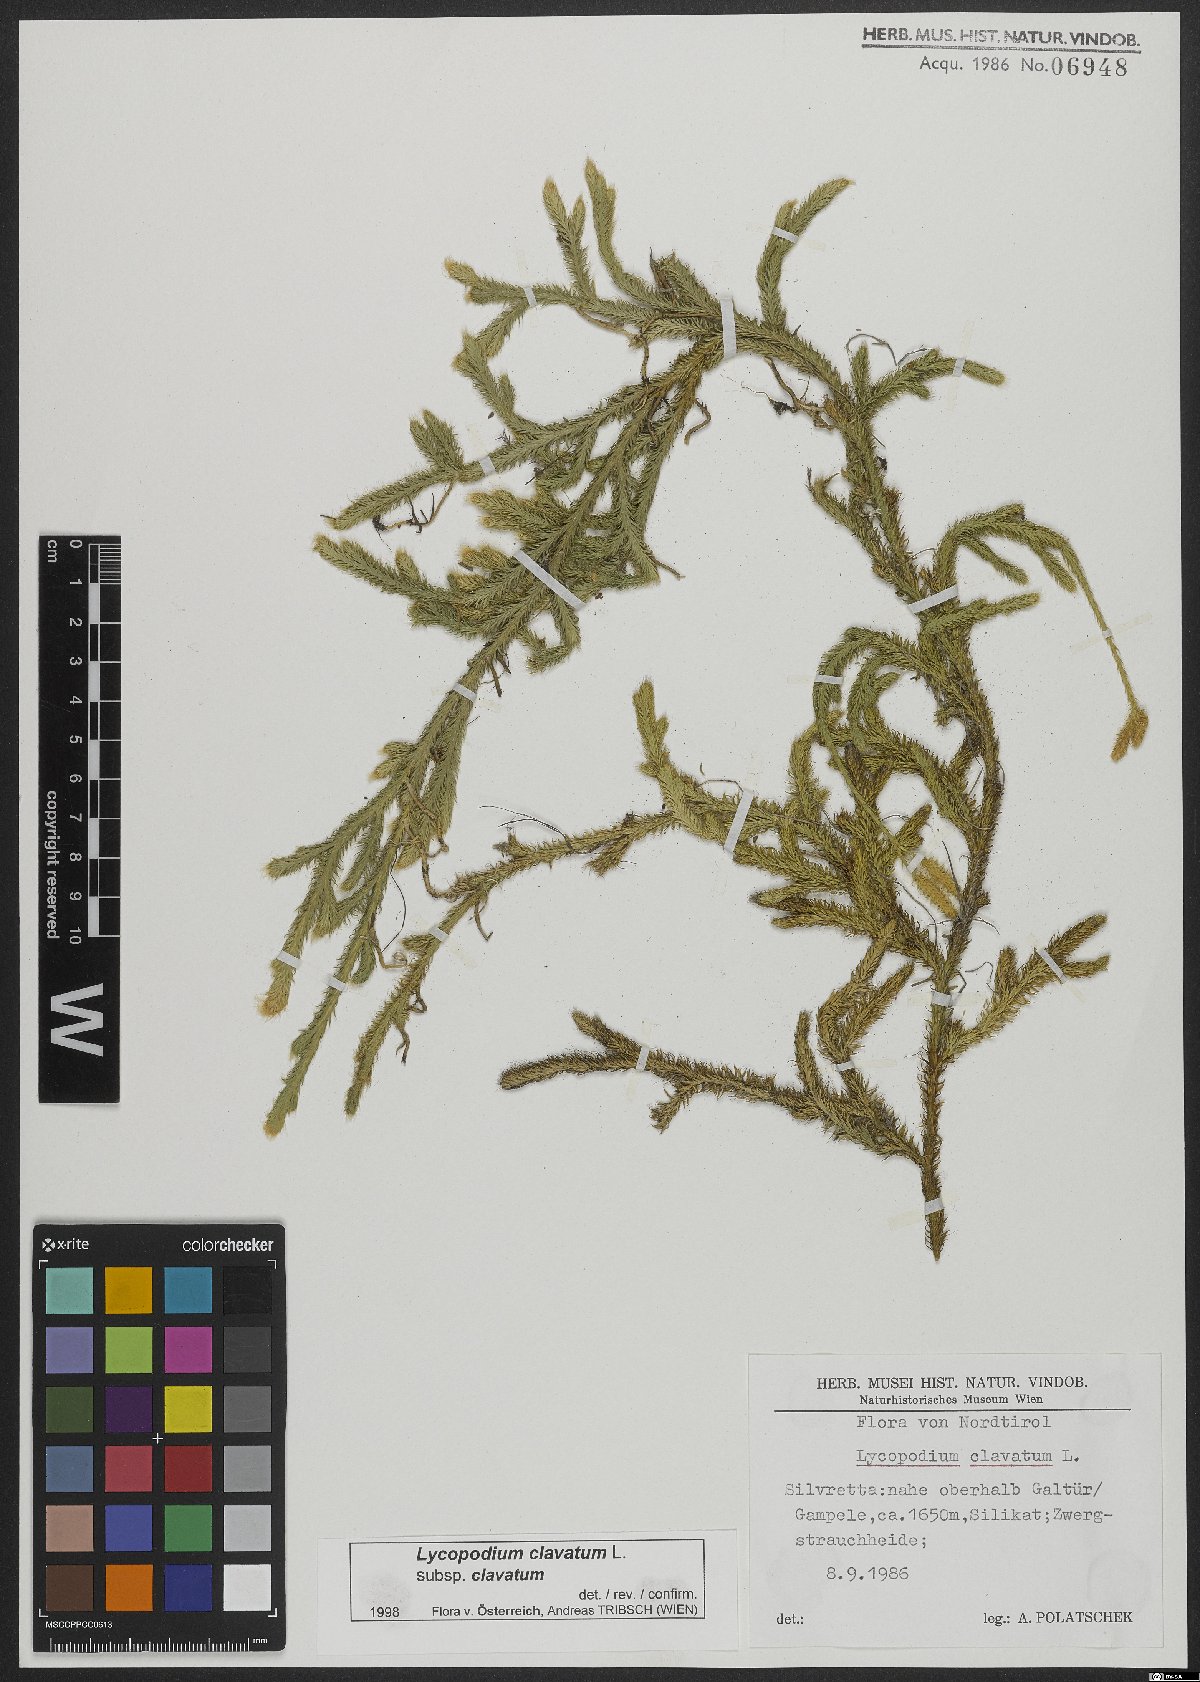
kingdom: Plantae
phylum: Tracheophyta
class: Lycopodiopsida
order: Lycopodiales
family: Lycopodiaceae
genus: Lycopodium
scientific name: Lycopodium clavatum
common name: Stag's-horn clubmoss
